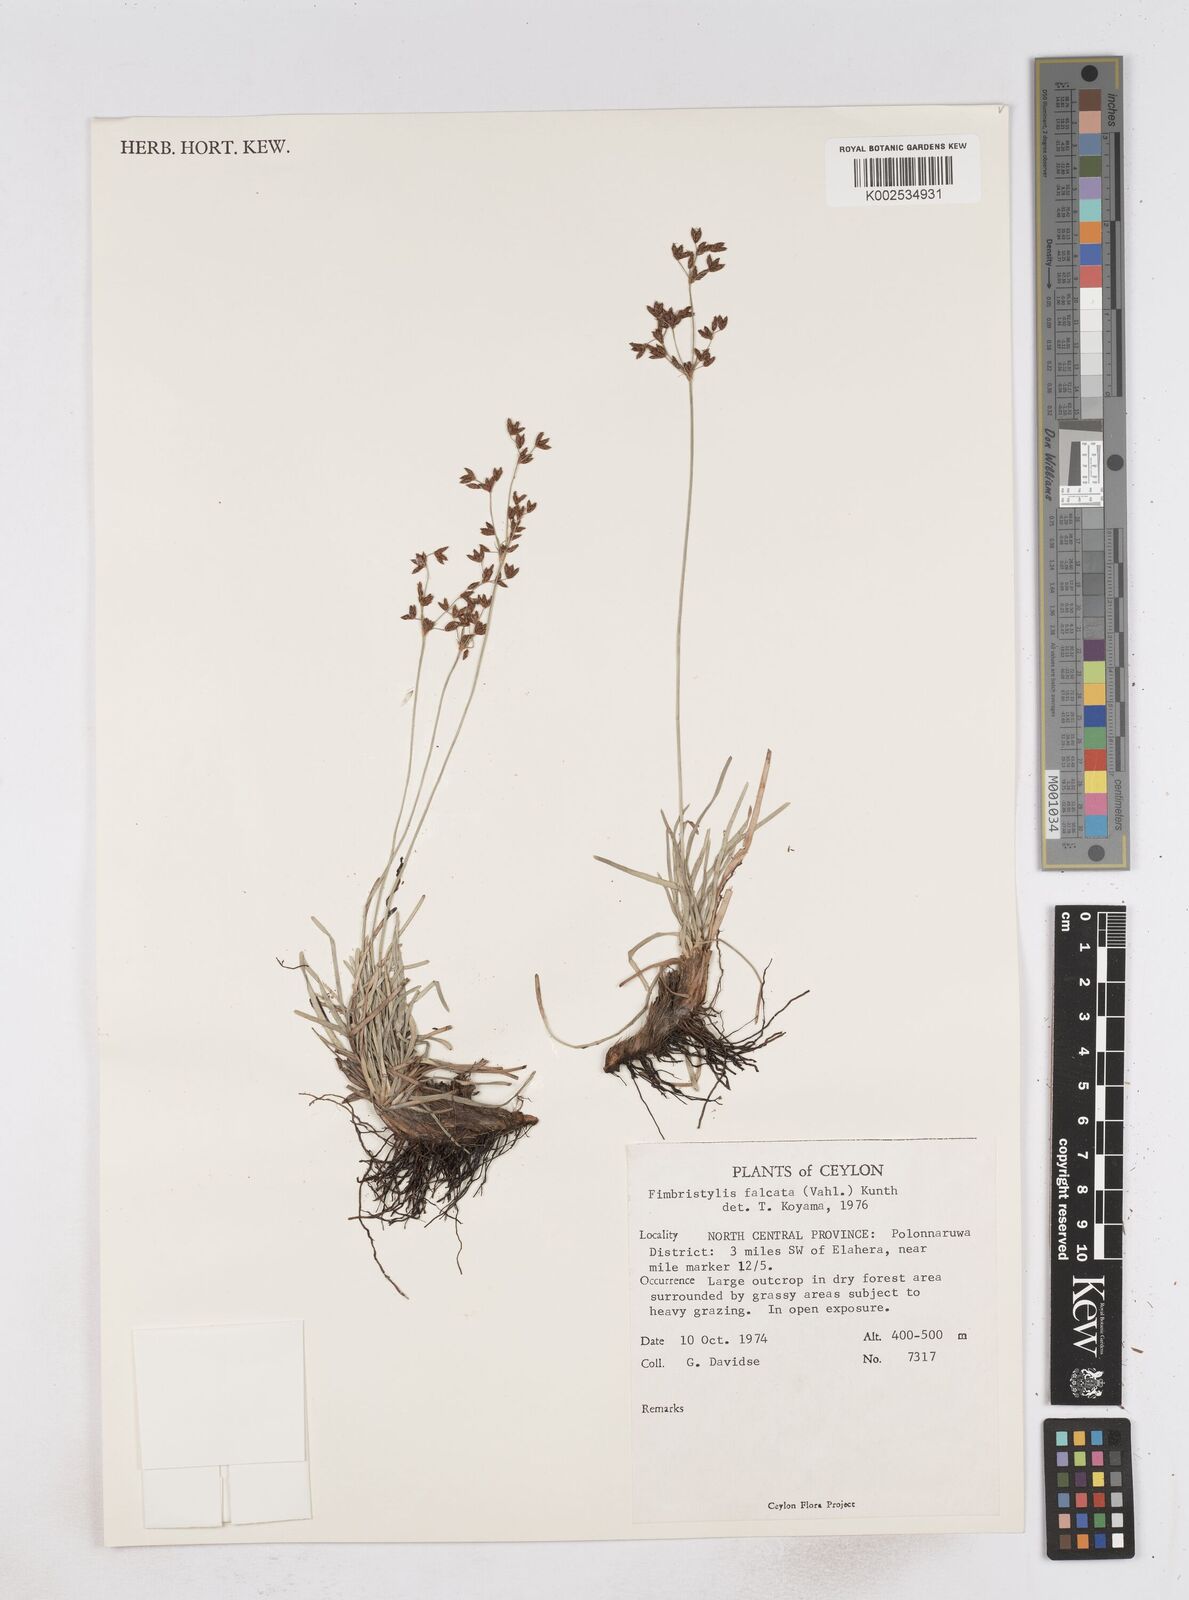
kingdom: Plantae
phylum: Tracheophyta
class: Liliopsida
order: Poales
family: Cyperaceae
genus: Fimbristylis
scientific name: Fimbristylis falcata
